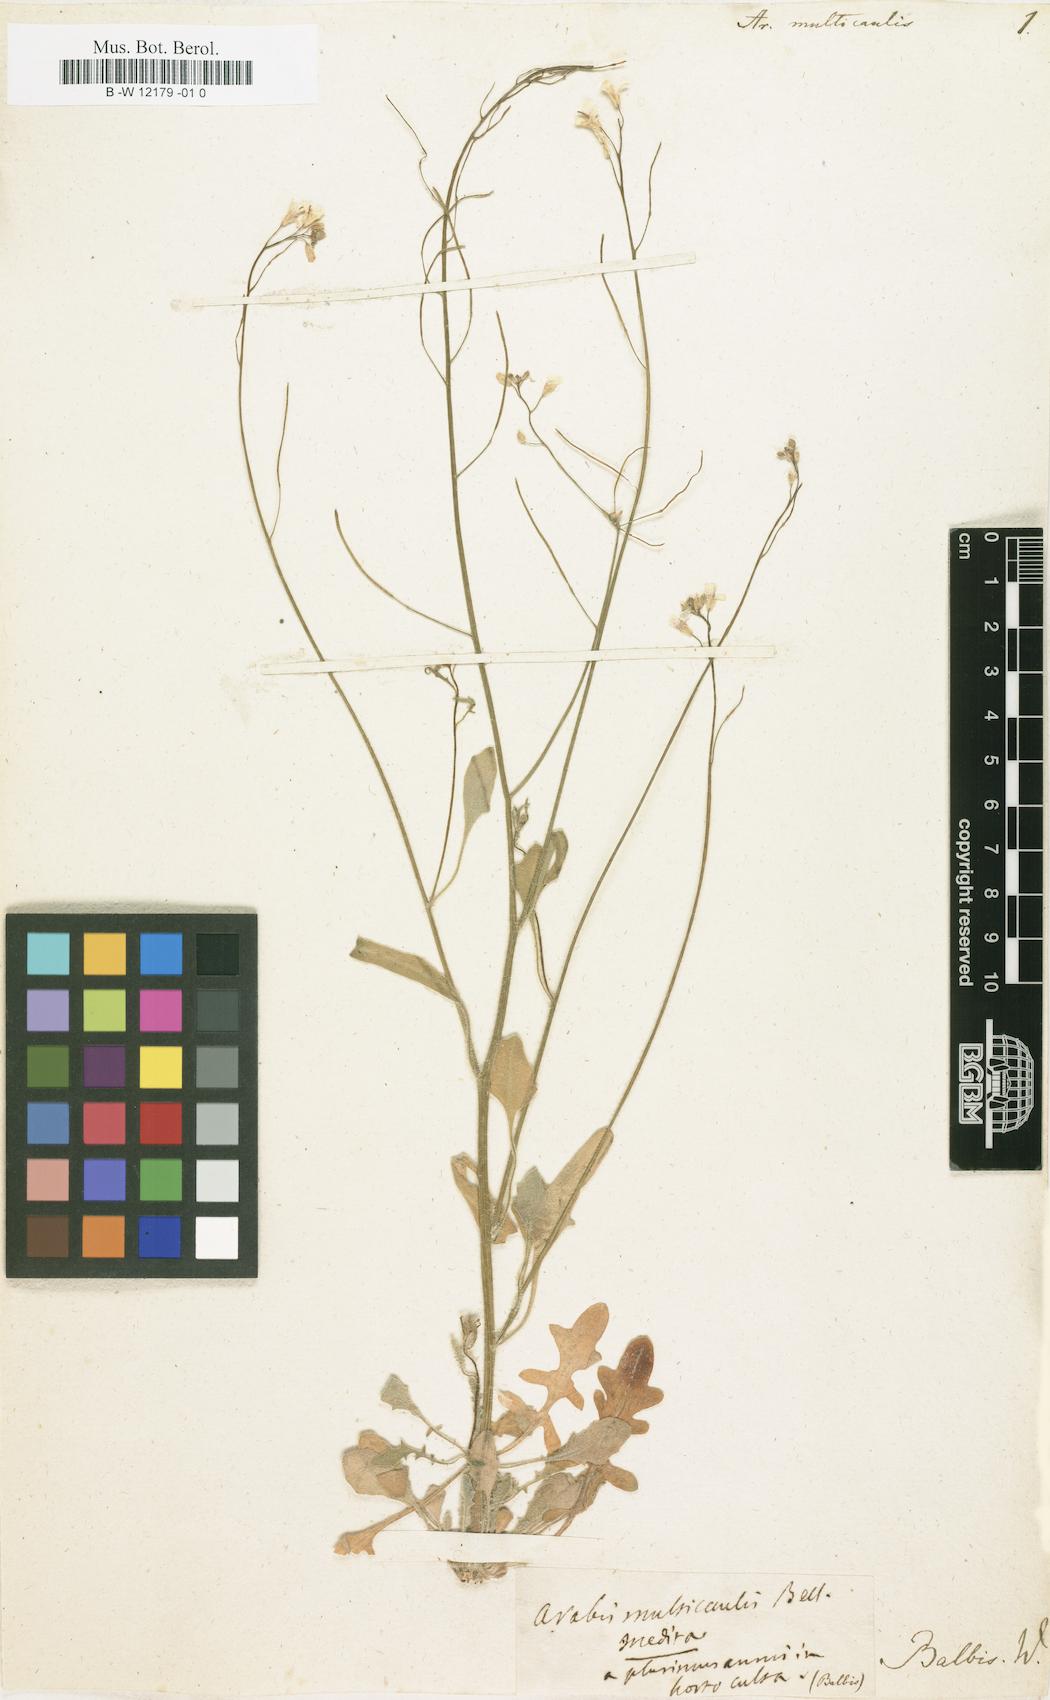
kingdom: Plantae
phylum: Tracheophyta
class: Magnoliopsida
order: Brassicales
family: Brassicaceae
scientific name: Brassicaceae
